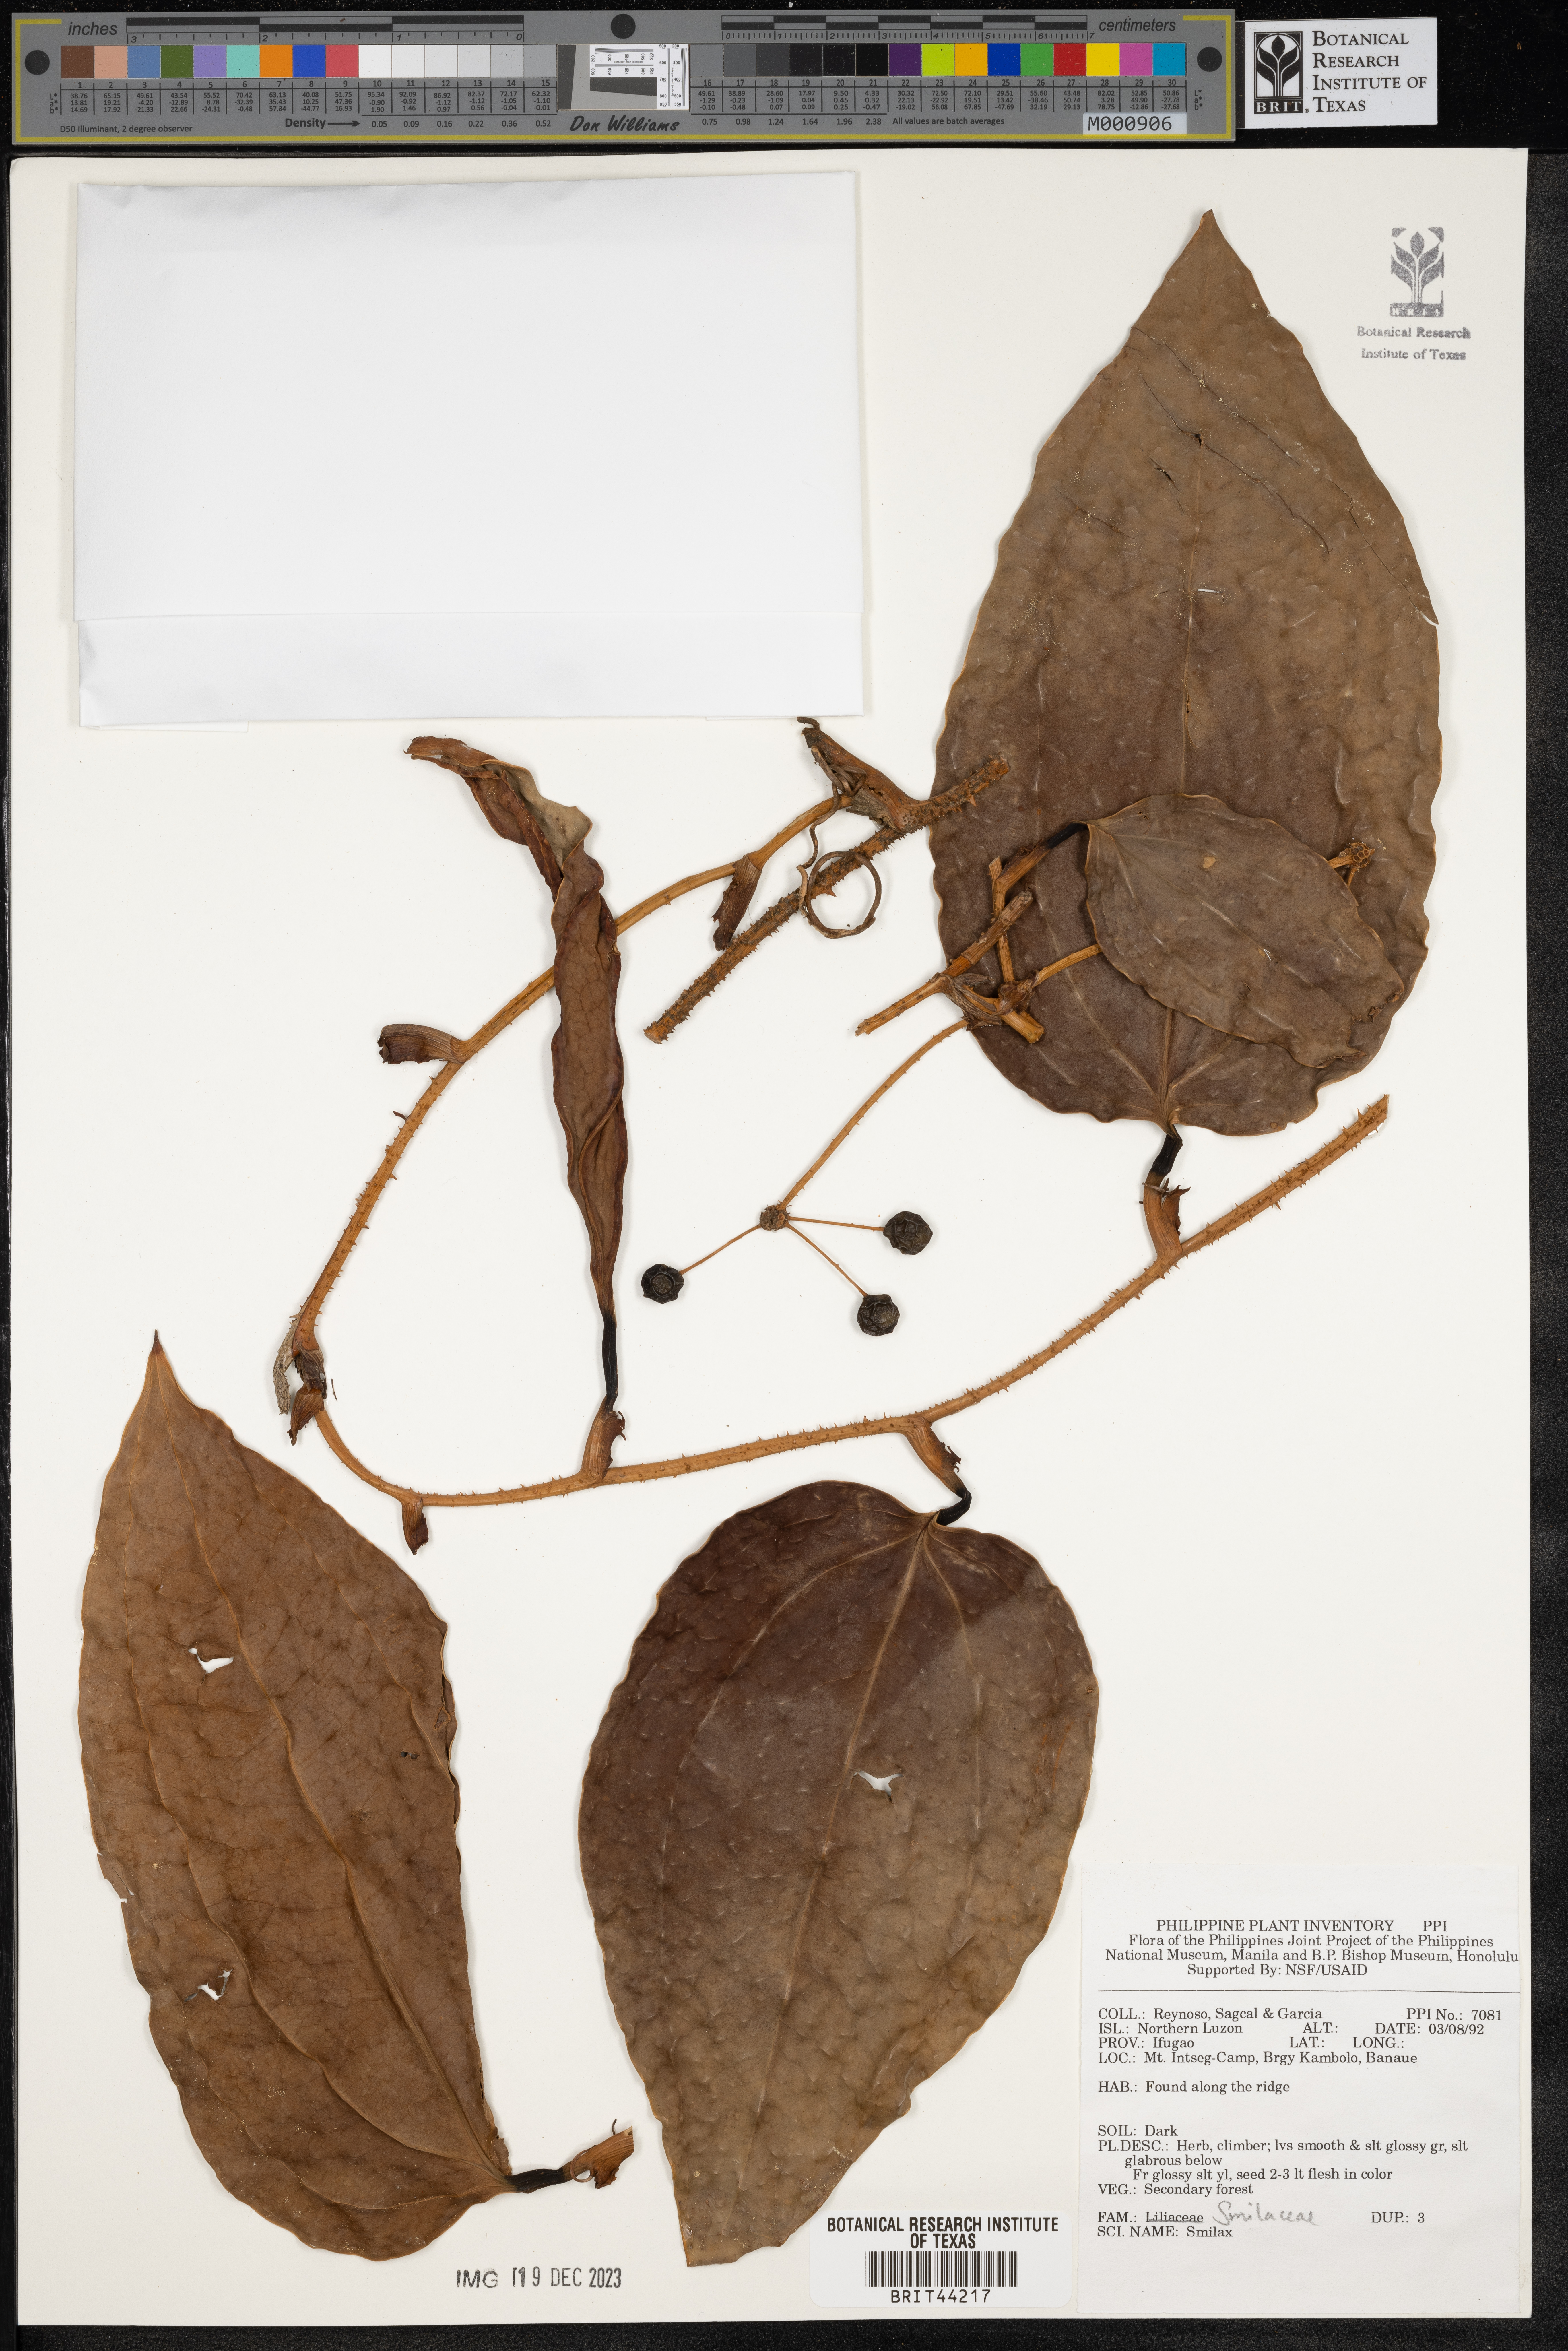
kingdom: Plantae
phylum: Tracheophyta
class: Liliopsida
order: Liliales
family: Smilacaceae
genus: Smilax
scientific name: Smilax
